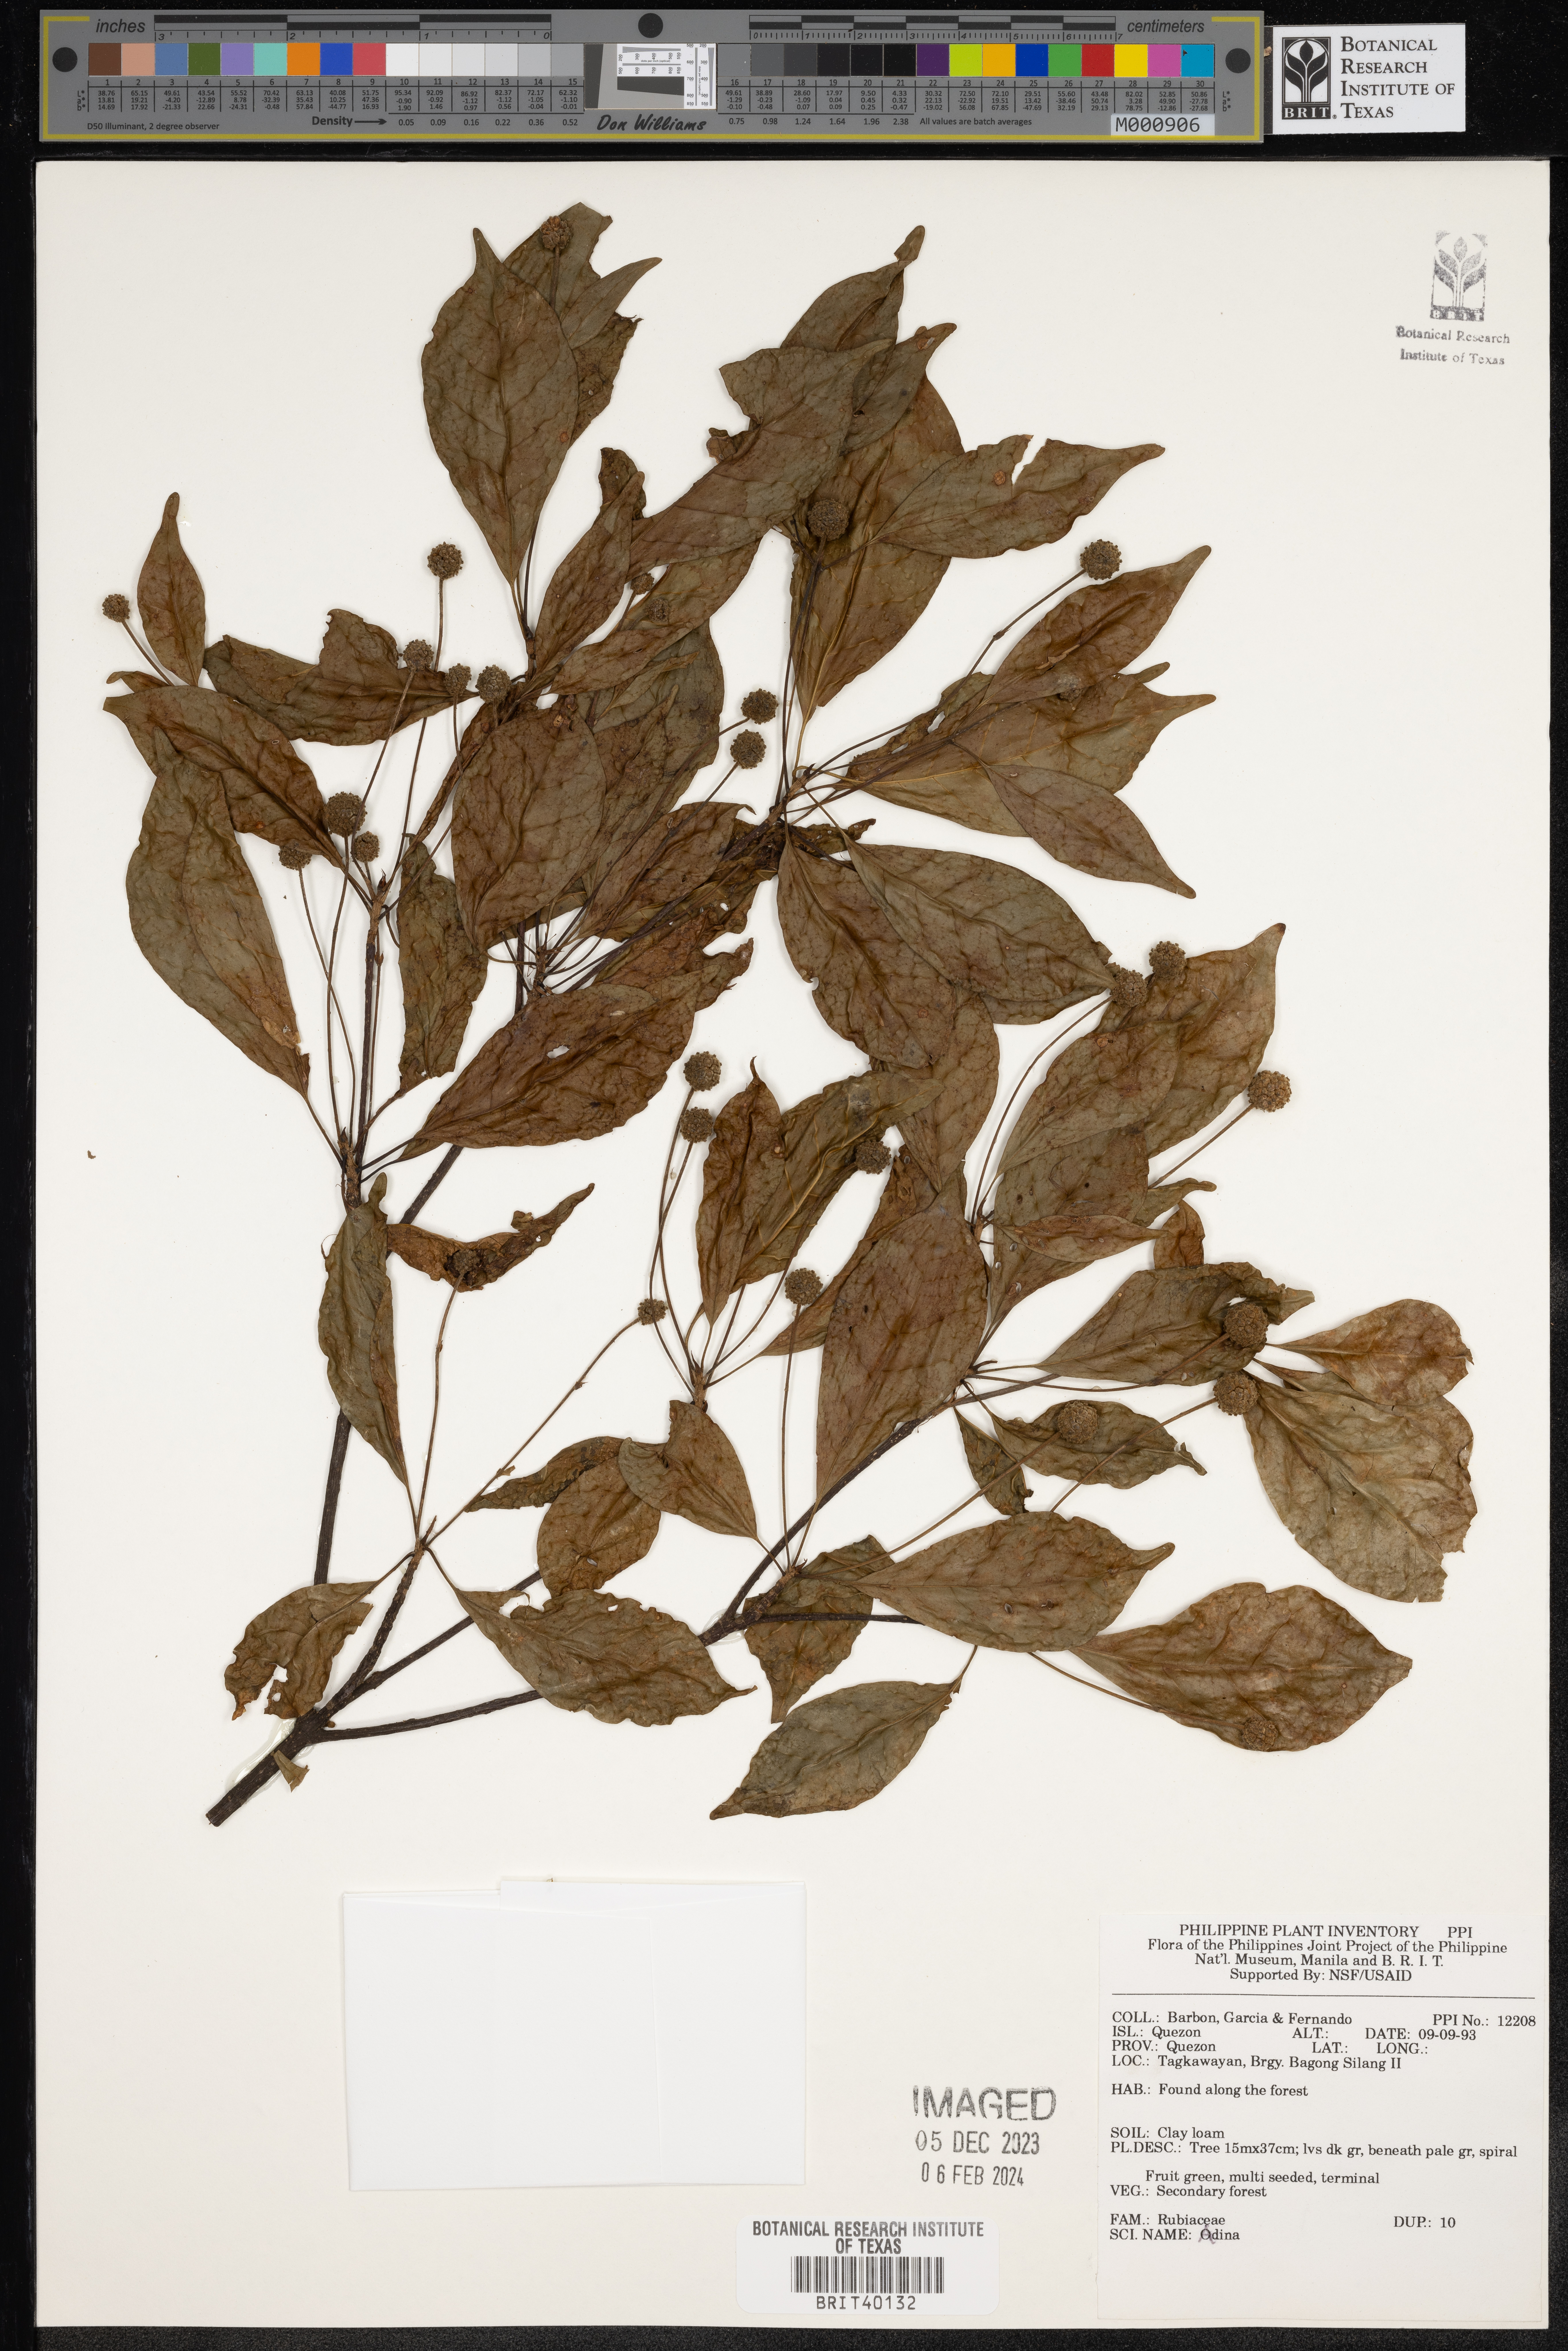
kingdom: Plantae
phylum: Tracheophyta
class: Magnoliopsida
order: Gentianales
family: Rubiaceae
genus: Adina
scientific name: Adina
